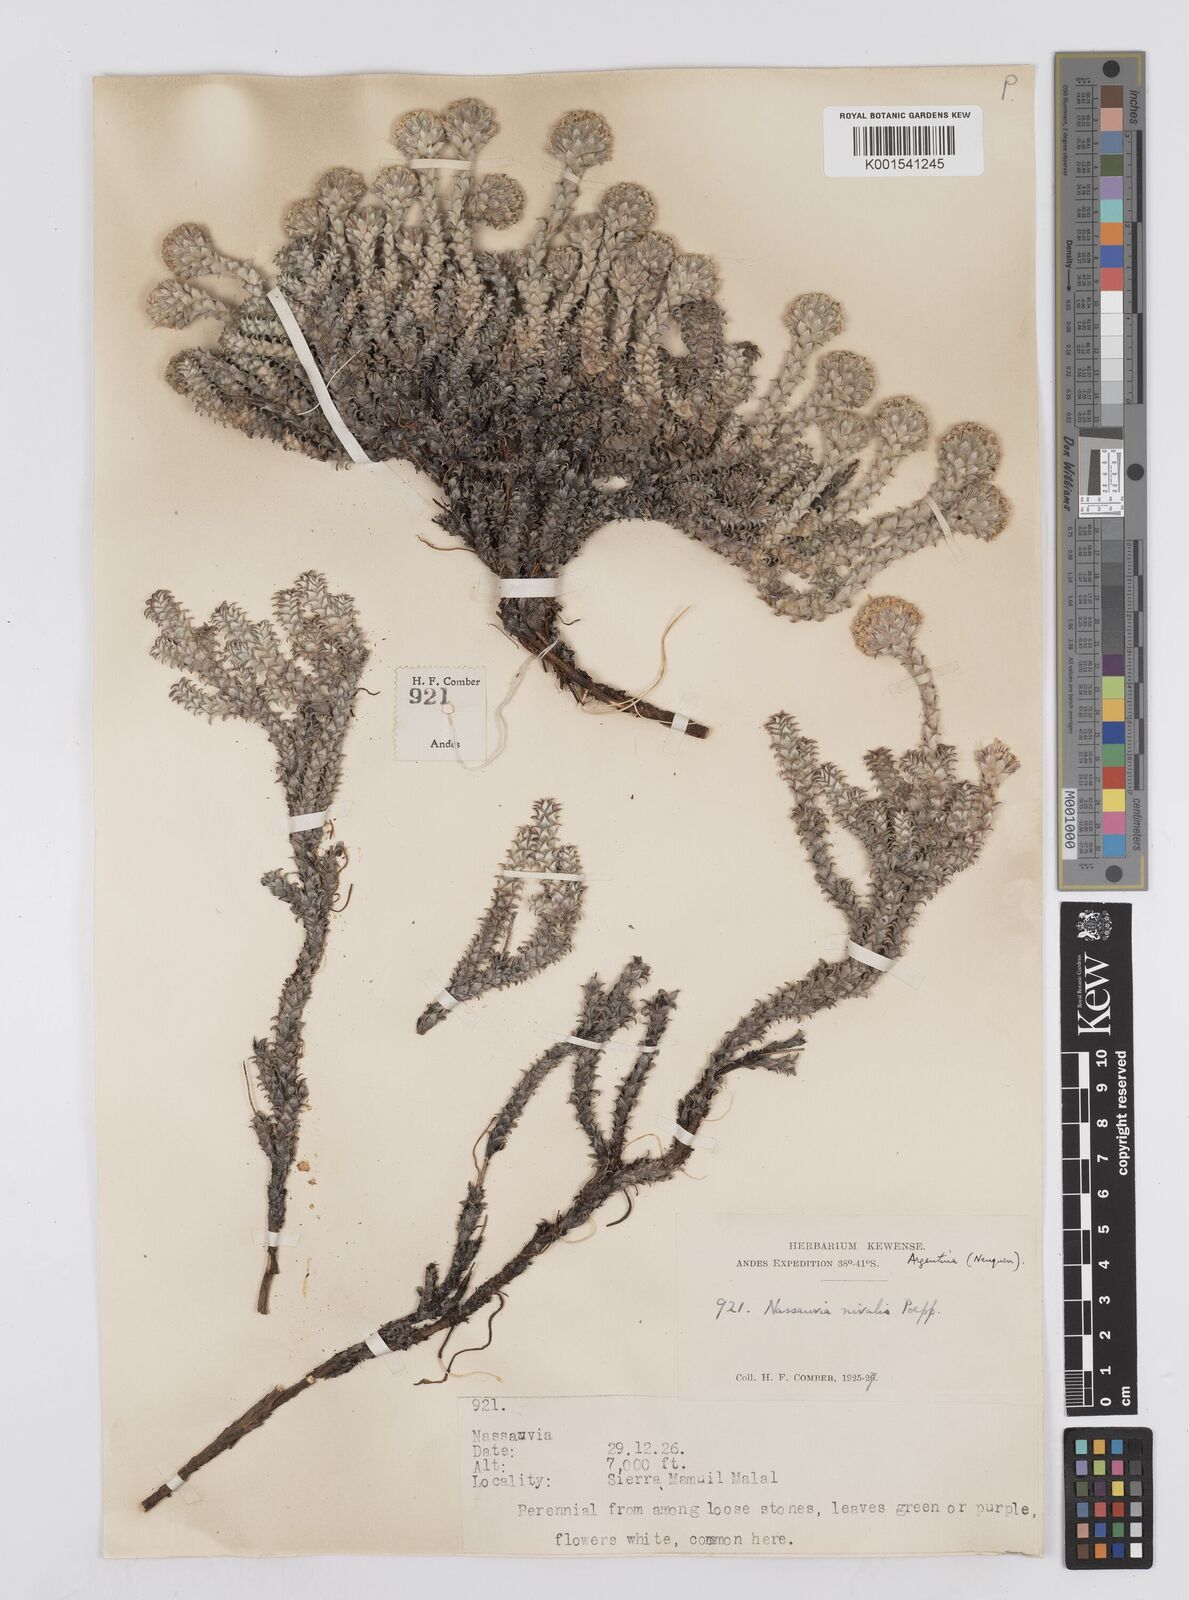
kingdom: Plantae
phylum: Tracheophyta
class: Magnoliopsida
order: Asterales
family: Asteraceae
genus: Nassauvia
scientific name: Nassauvia revoluta
